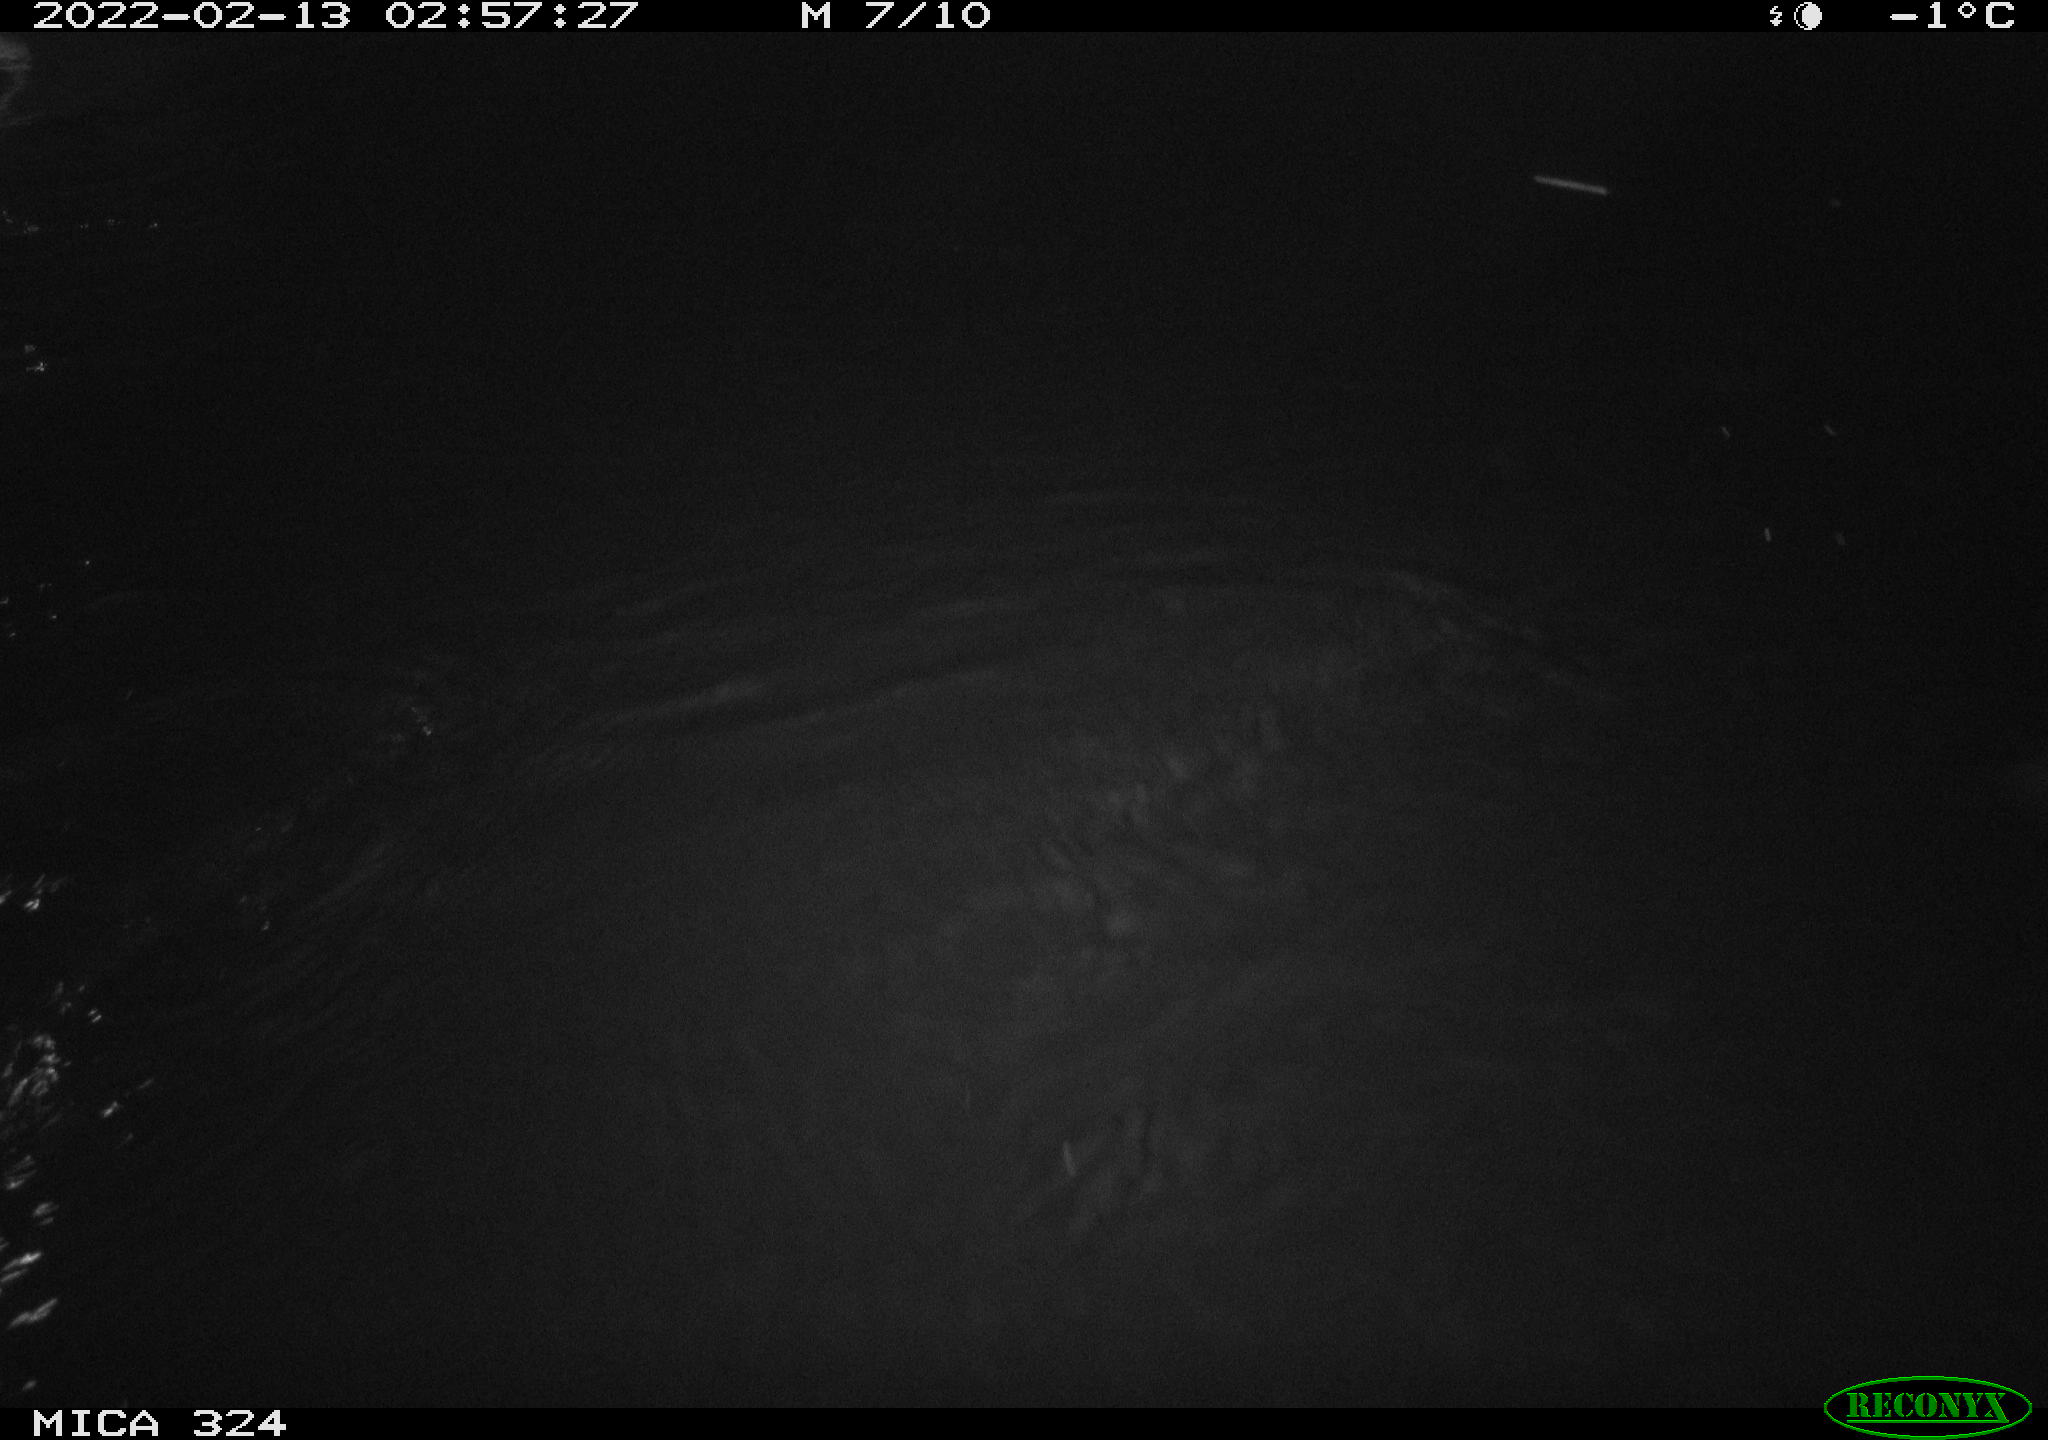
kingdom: Animalia
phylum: Chordata
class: Mammalia
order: Rodentia
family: Cricetidae
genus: Ondatra
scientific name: Ondatra zibethicus
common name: Muskrat
